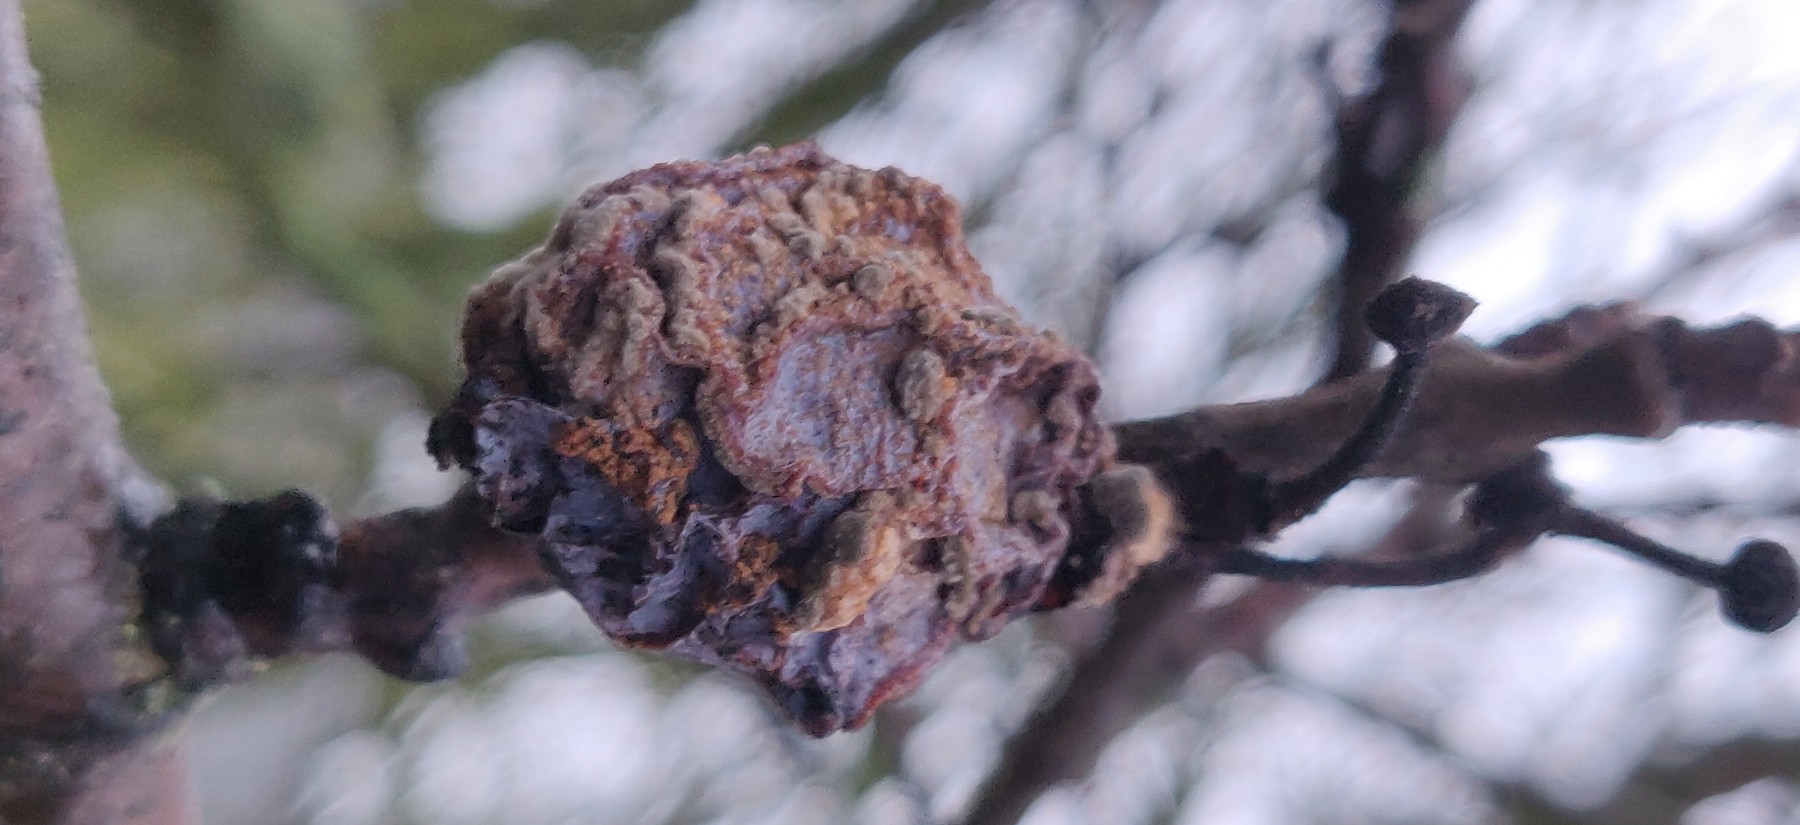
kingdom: Fungi
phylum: Ascomycota
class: Leotiomycetes
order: Helotiales
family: Sclerotiniaceae
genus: Monilinia
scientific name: Monilinia laxa
